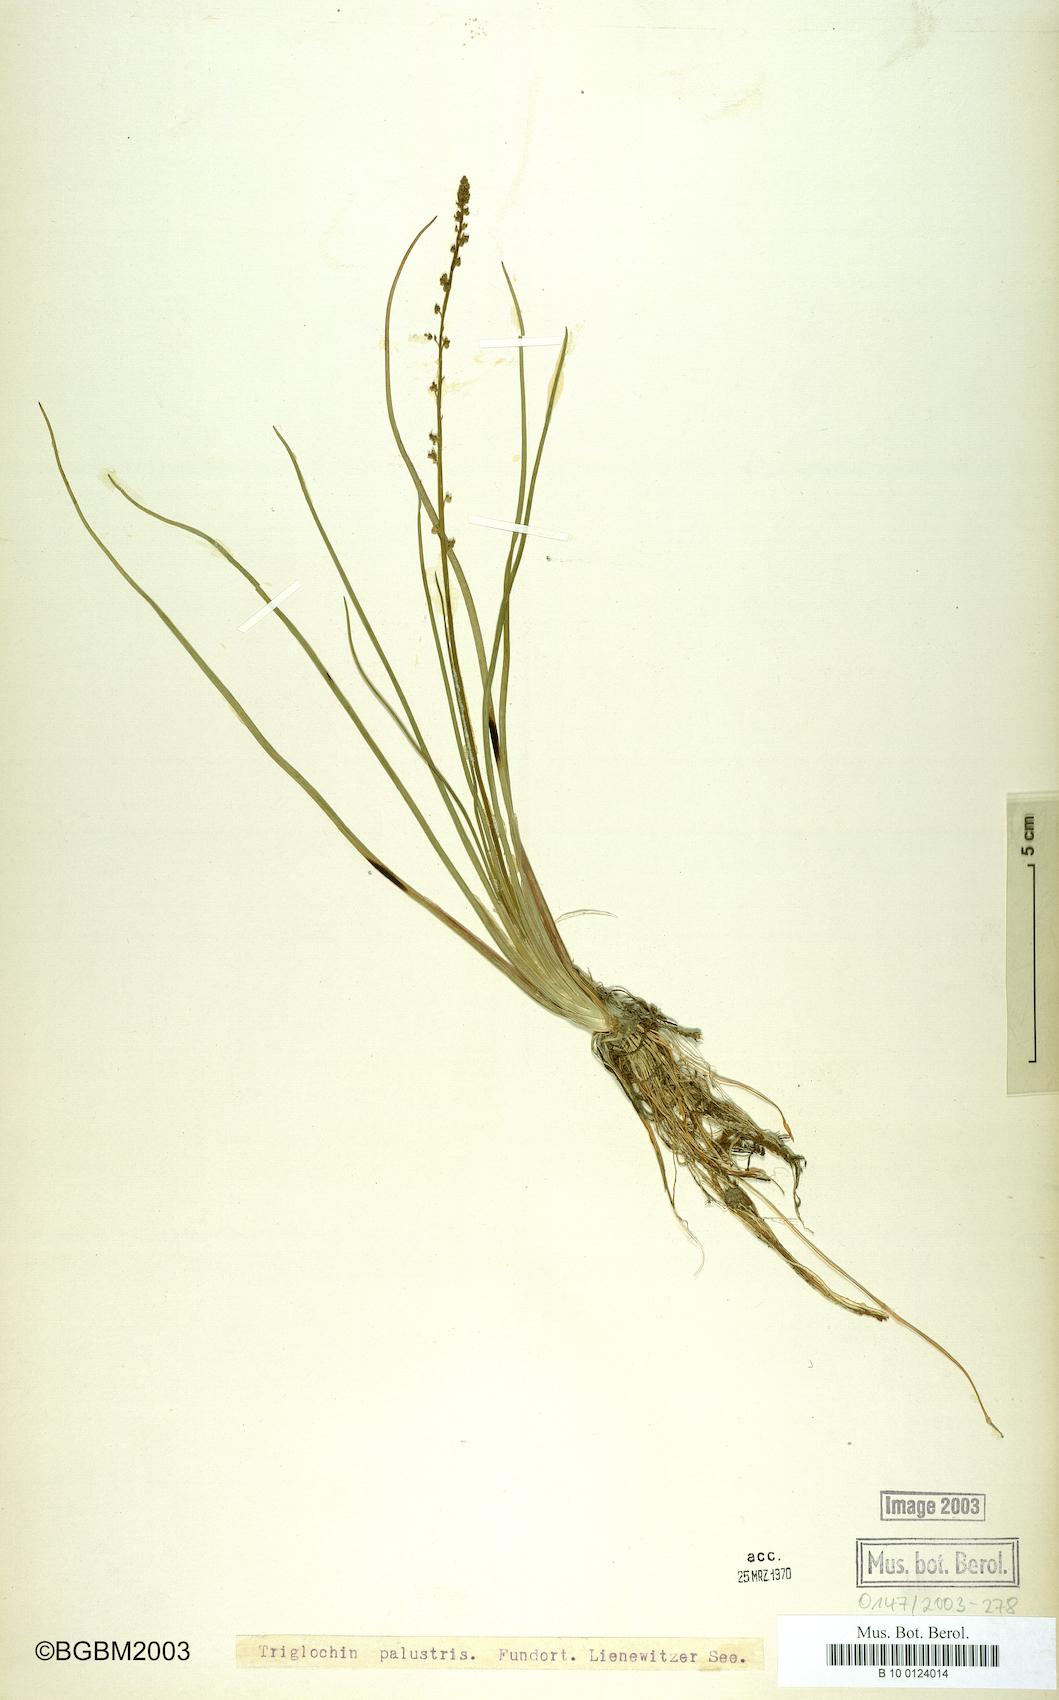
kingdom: Plantae
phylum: Tracheophyta
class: Liliopsida
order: Alismatales
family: Juncaginaceae
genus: Triglochin
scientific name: Triglochin palustris
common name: Marsh arrowgrass
